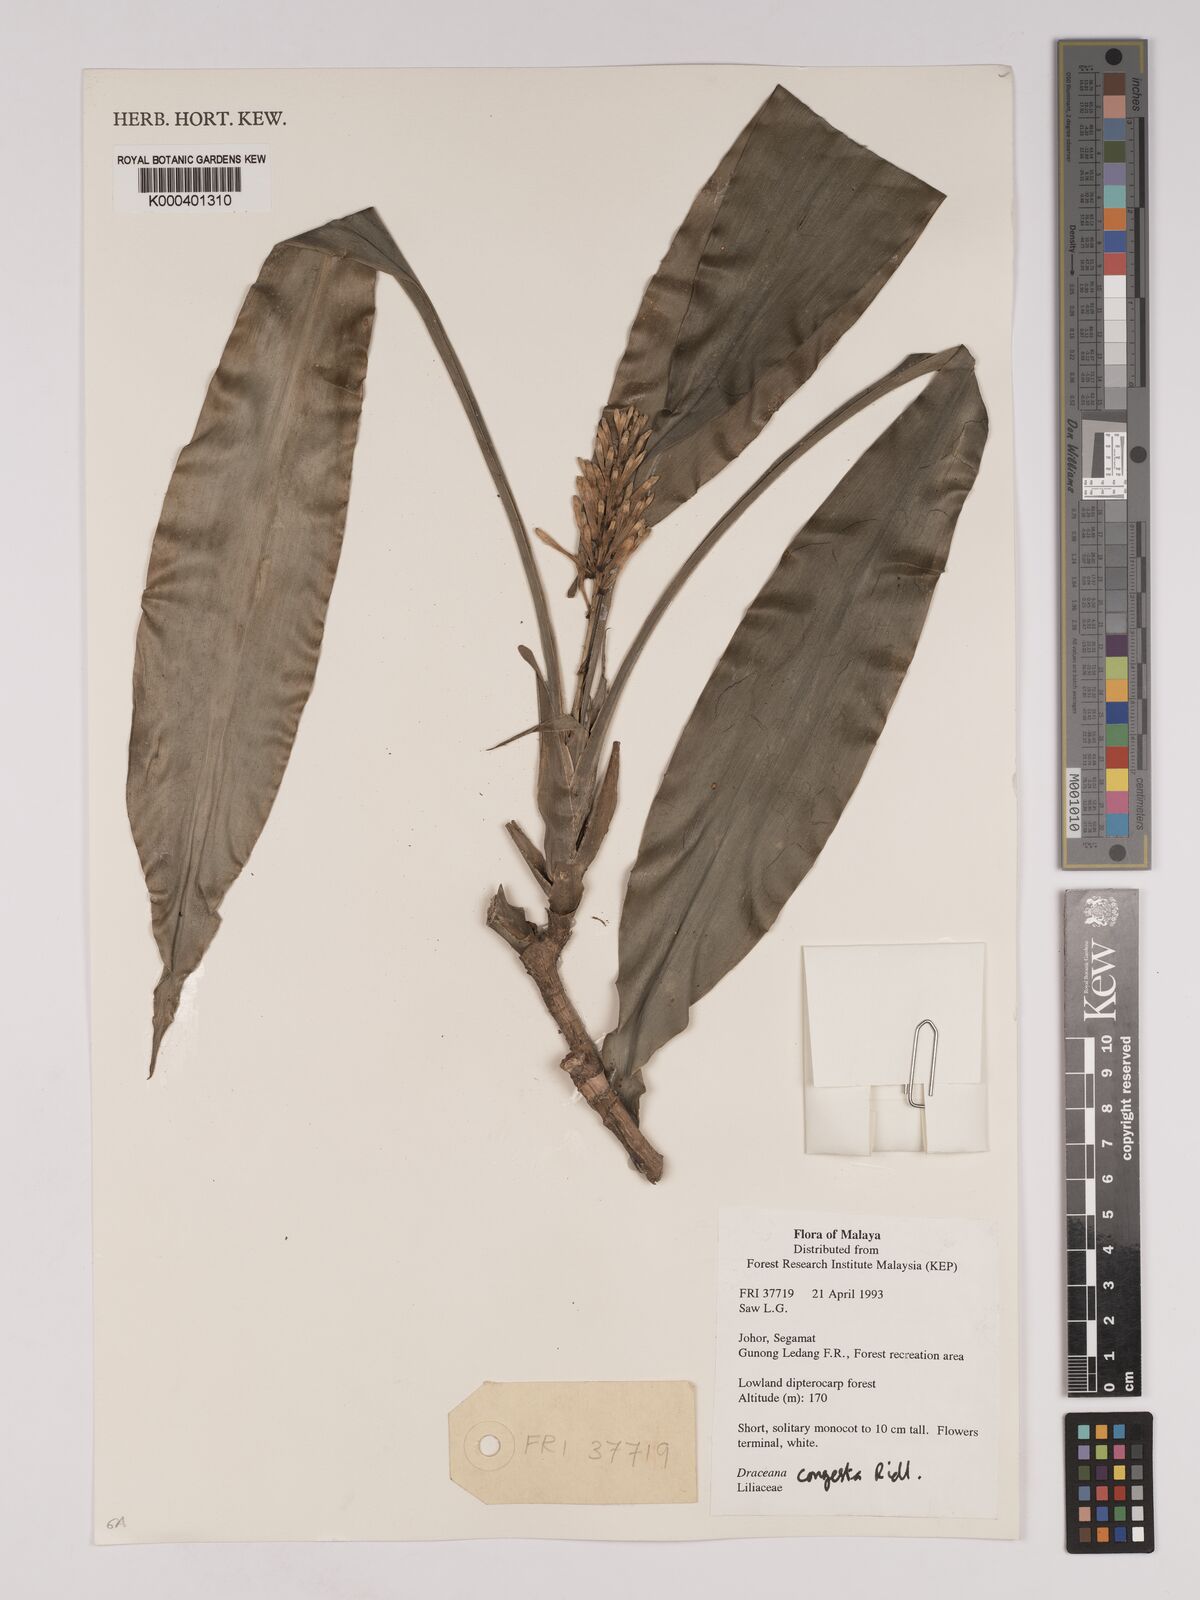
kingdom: Plantae
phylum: Tracheophyta
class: Liliopsida
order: Asparagales
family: Asparagaceae
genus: Dracaena
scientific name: Dracaena chiniana
